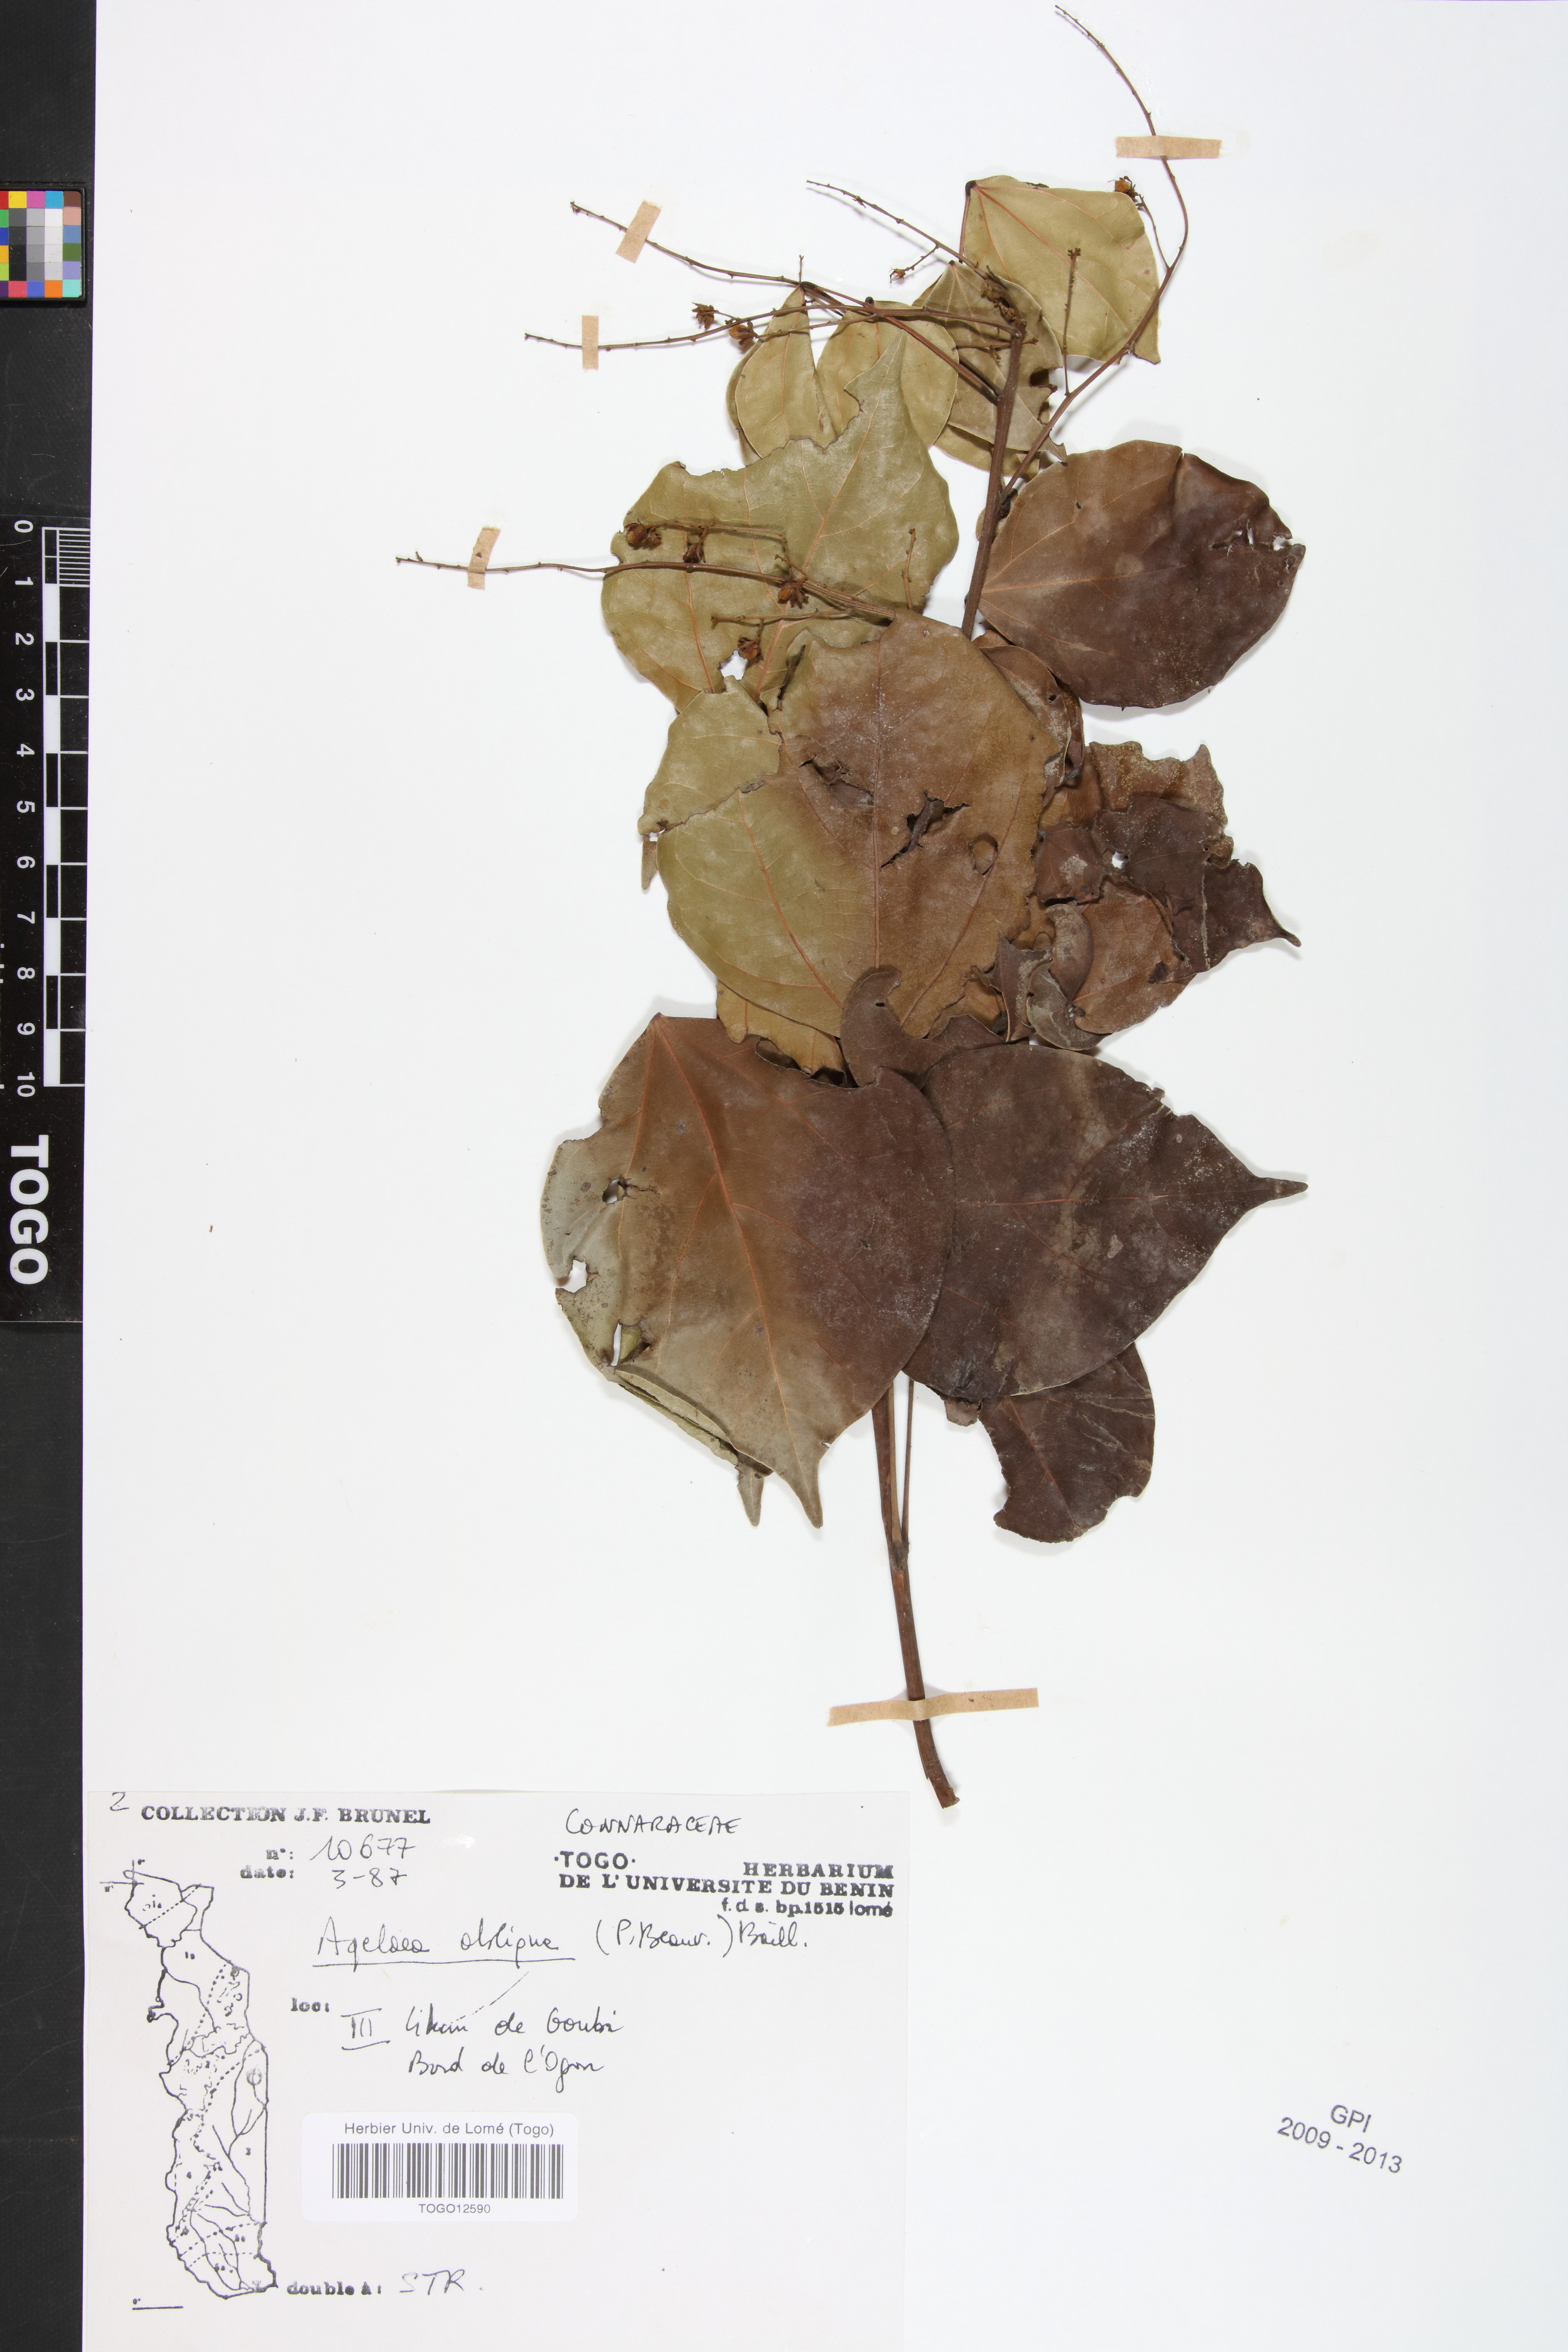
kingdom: Plantae
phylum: Tracheophyta
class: Magnoliopsida
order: Oxalidales
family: Connaraceae
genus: Agelaea
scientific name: Agelaea pentagyna
